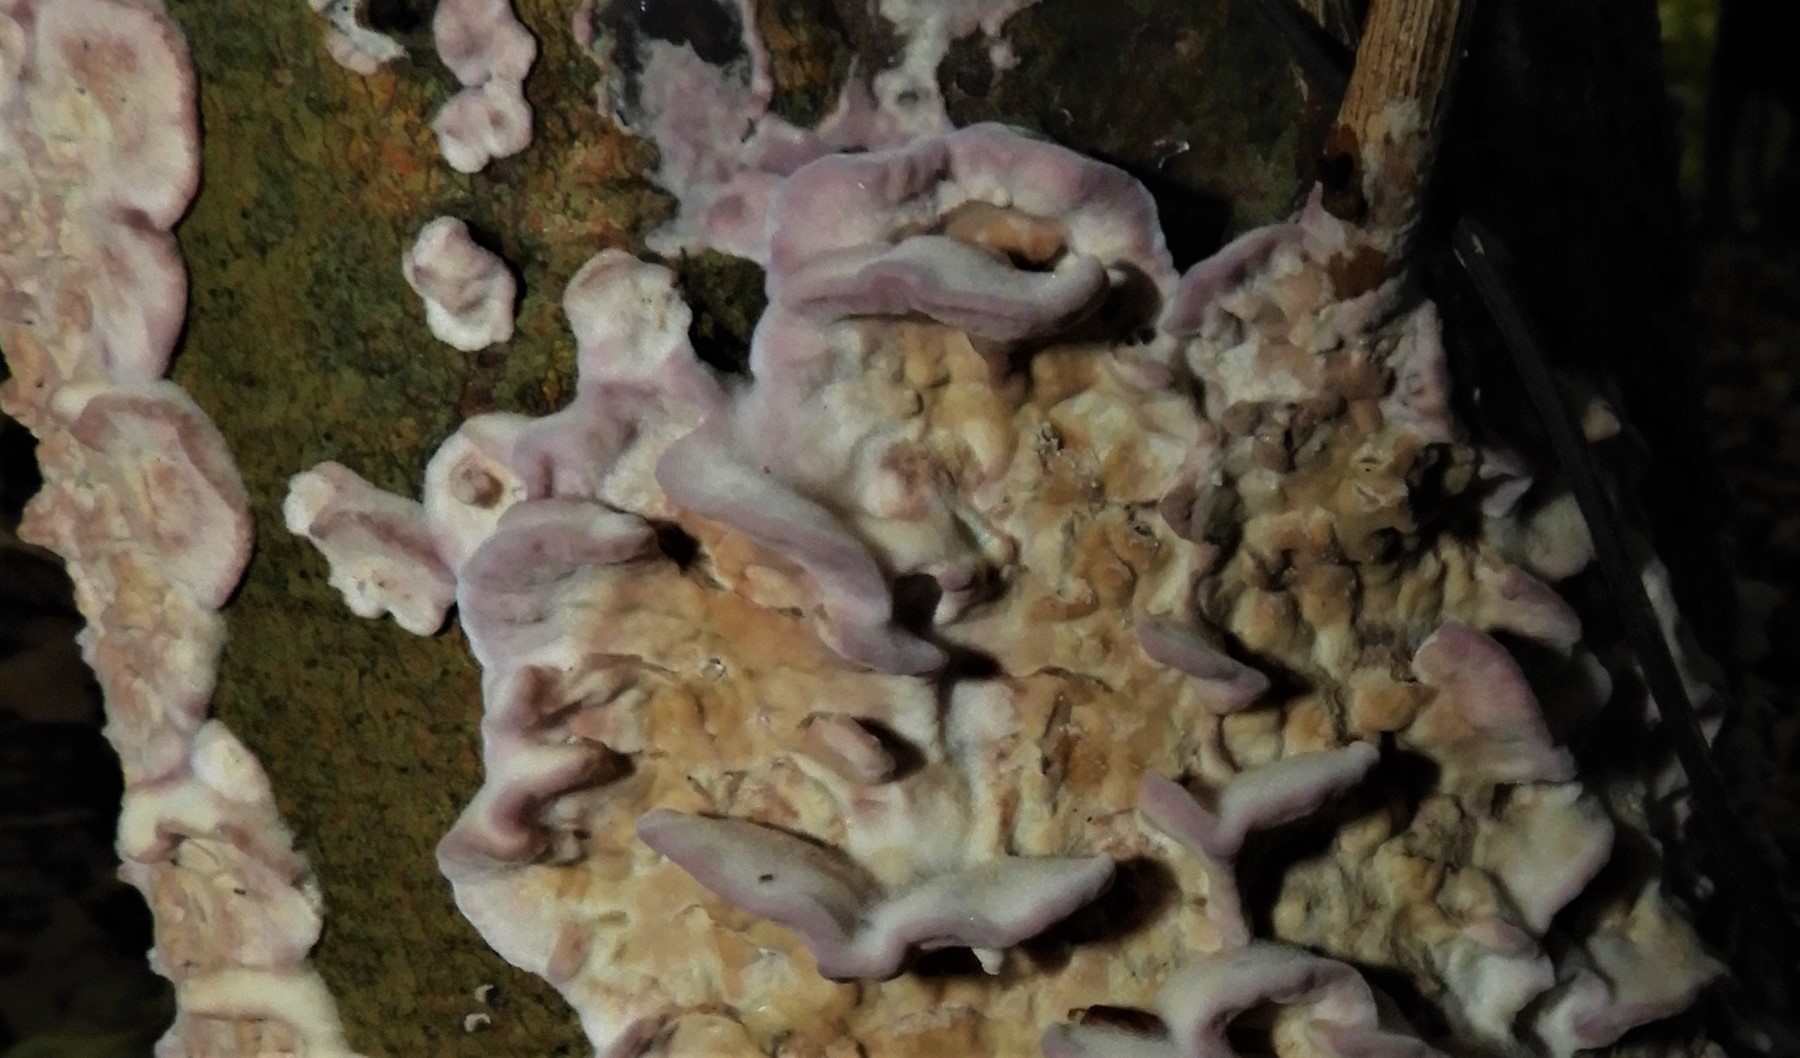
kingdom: Fungi
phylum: Basidiomycota
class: Agaricomycetes
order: Agaricales
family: Cyphellaceae
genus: Chondrostereum
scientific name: Chondrostereum purpureum
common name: purpurlædersvamp
